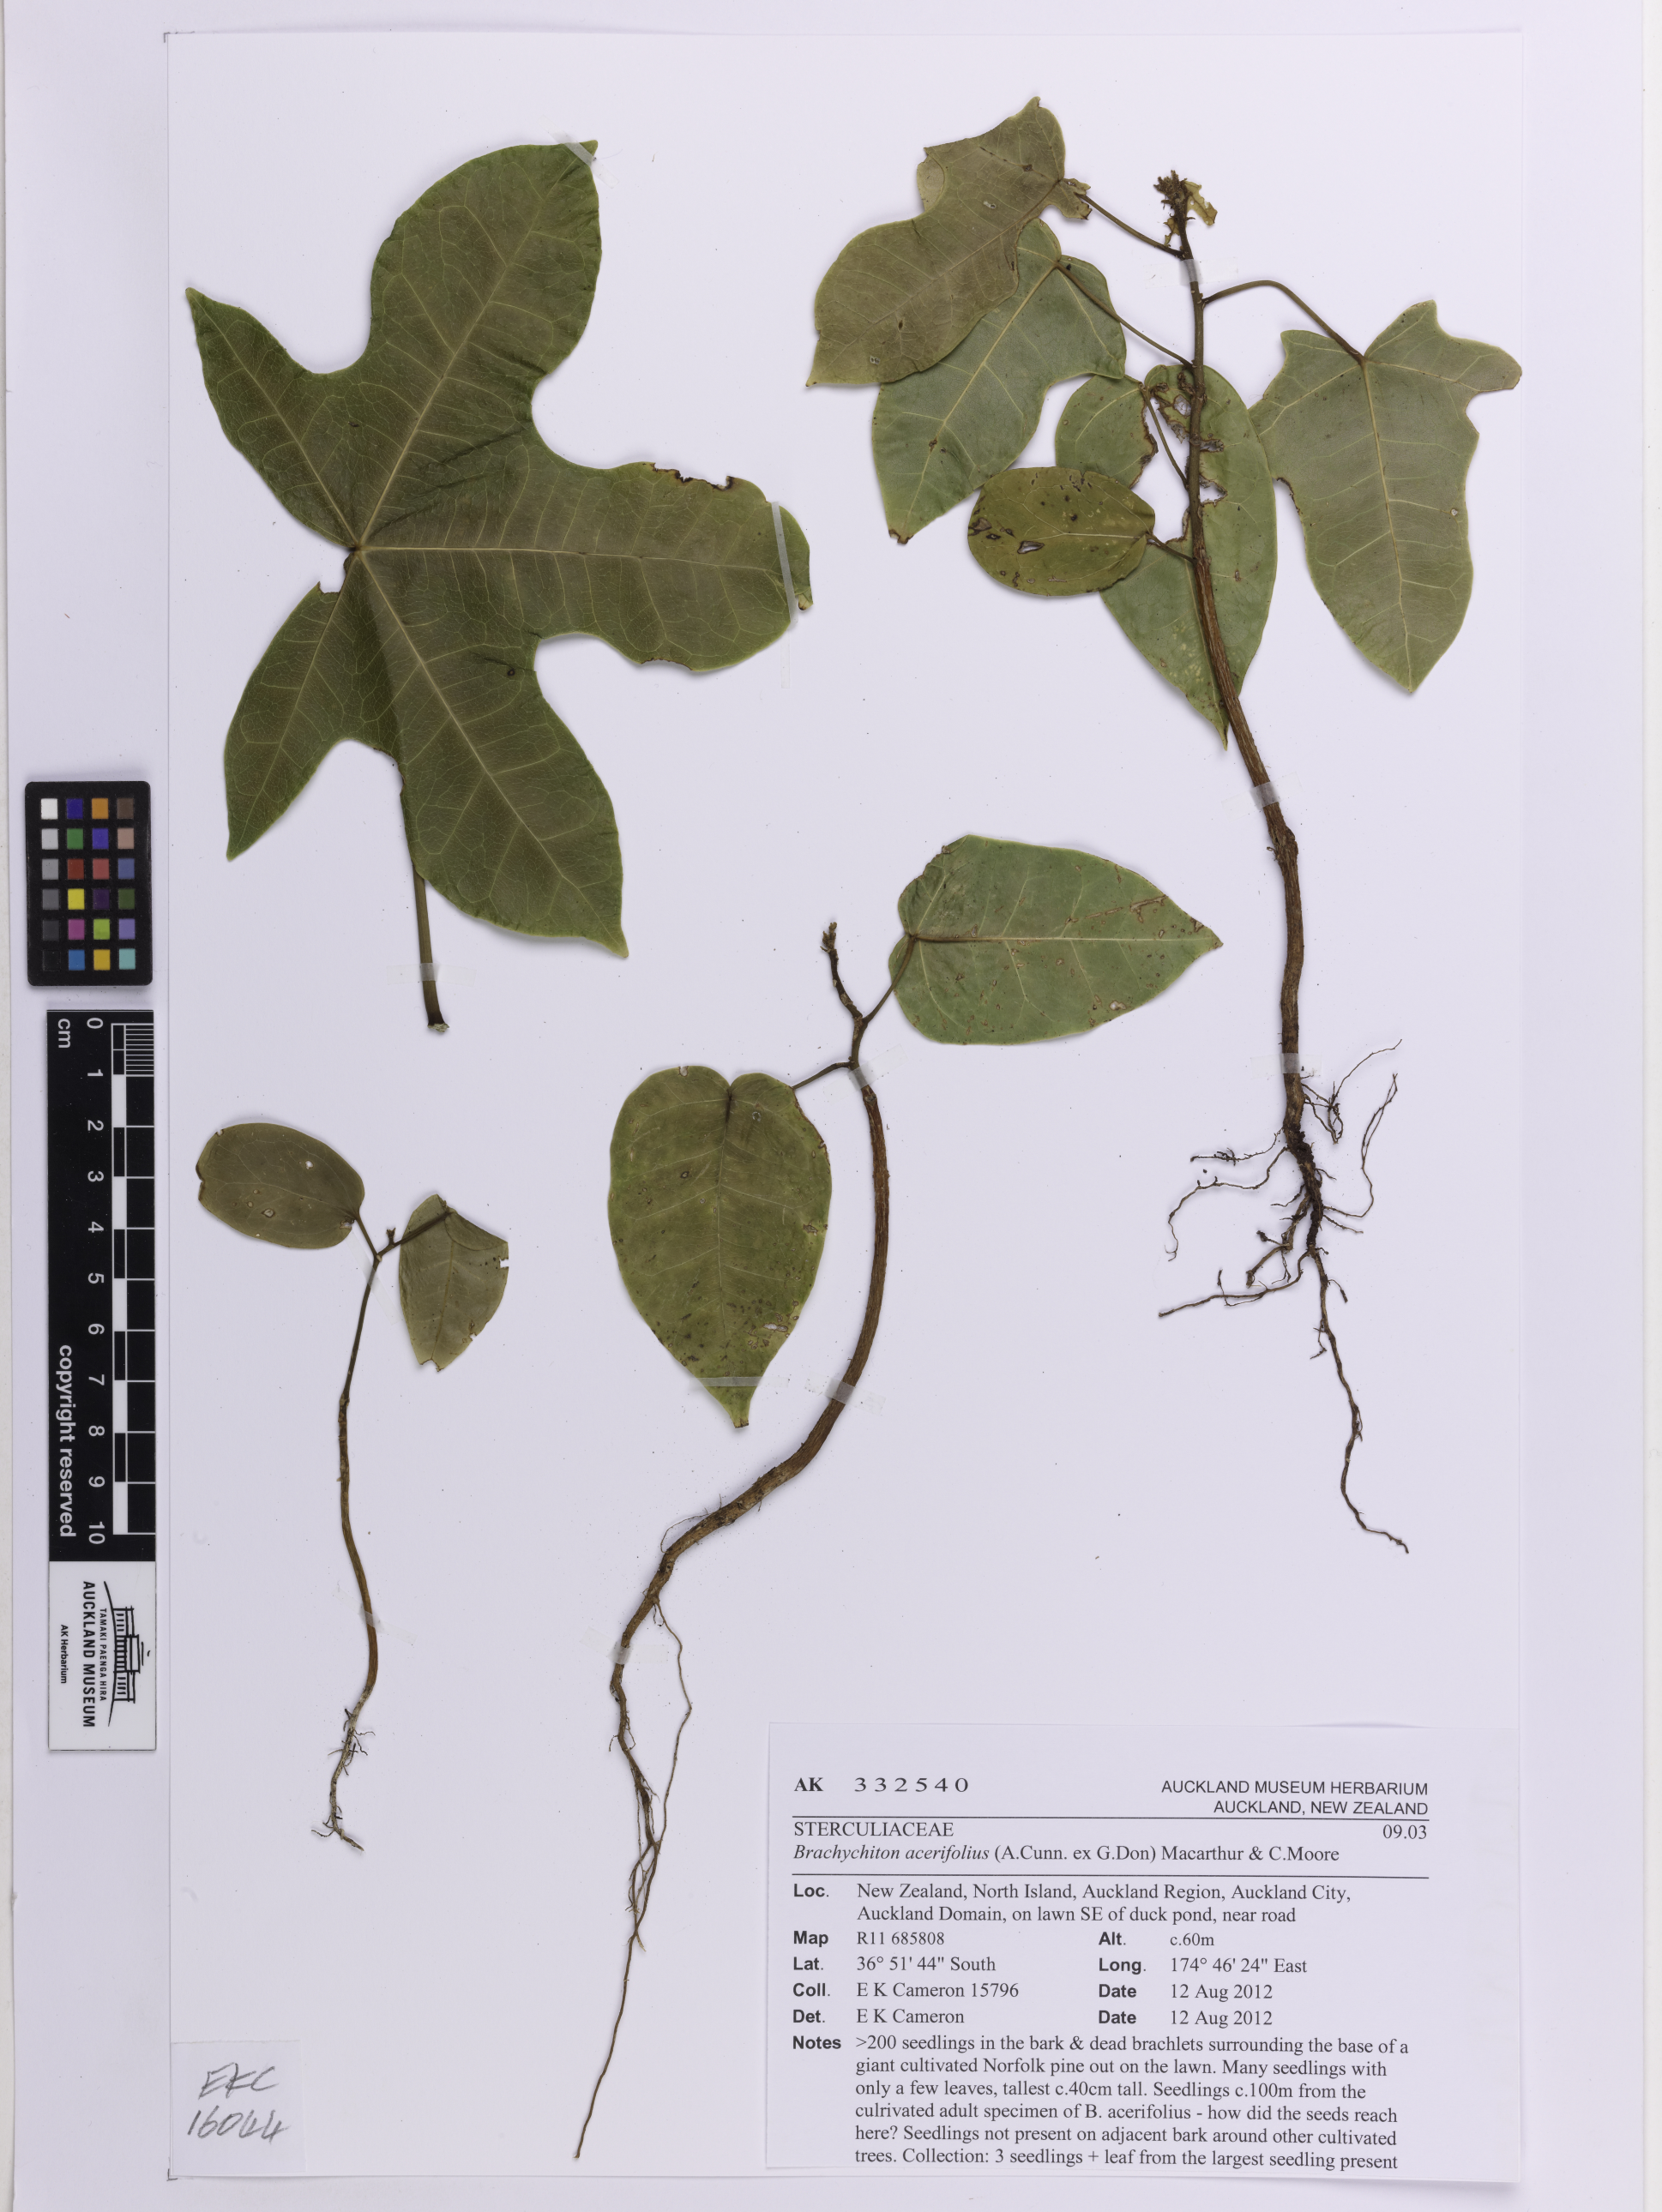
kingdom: Plantae
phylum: Tracheophyta
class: Magnoliopsida
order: Malvales
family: Malvaceae
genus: Brachychiton
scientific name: Brachychiton acerifolius
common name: Illawarra flame tree
